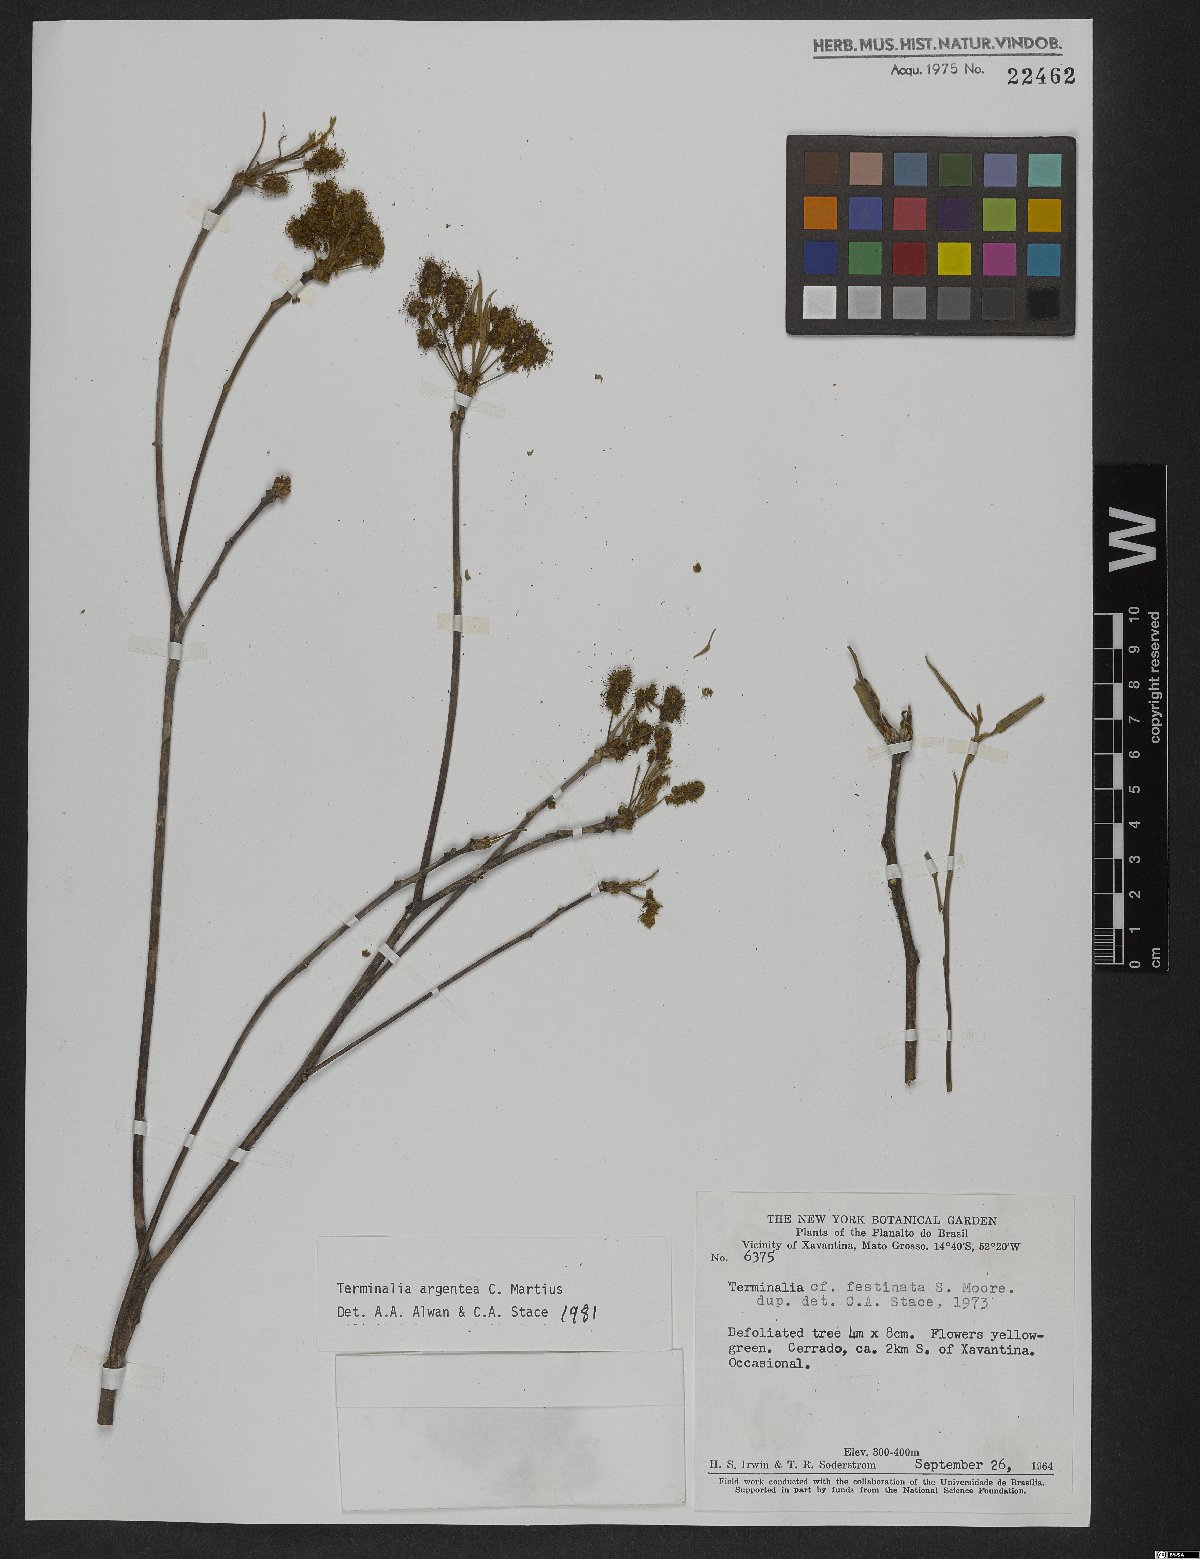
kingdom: Plantae
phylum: Tracheophyta
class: Magnoliopsida
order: Myrtales
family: Combretaceae
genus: Terminalia
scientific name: Terminalia argentea
